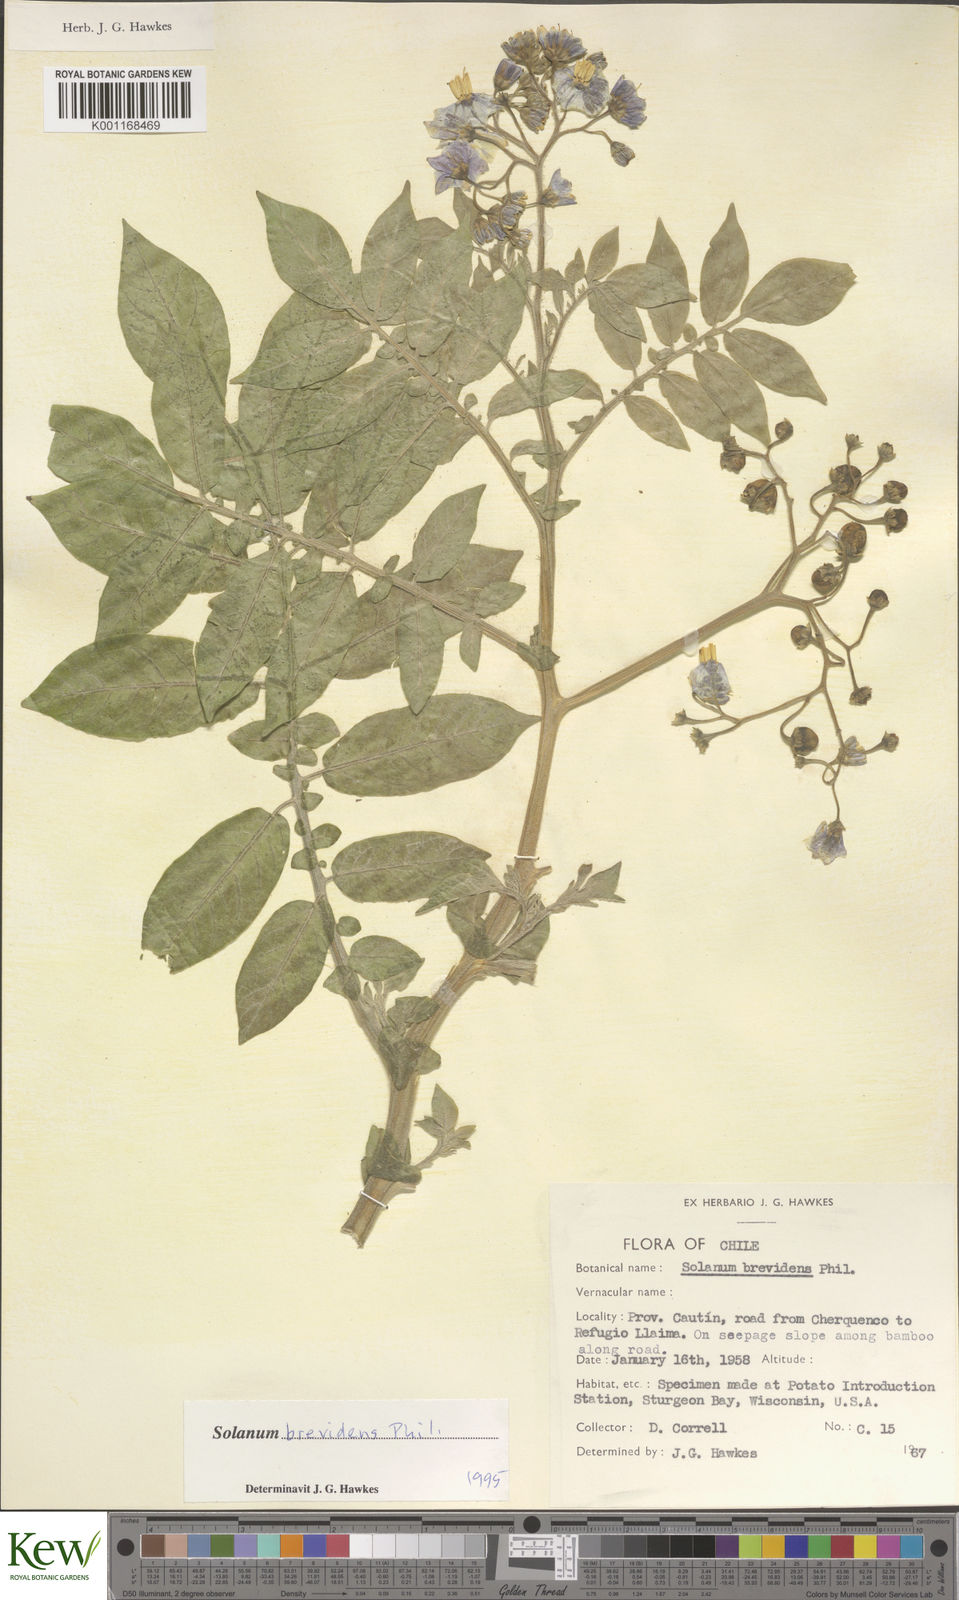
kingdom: Plantae
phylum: Tracheophyta
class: Magnoliopsida
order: Solanales
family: Solanaceae
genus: Solanum
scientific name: Solanum palustre
